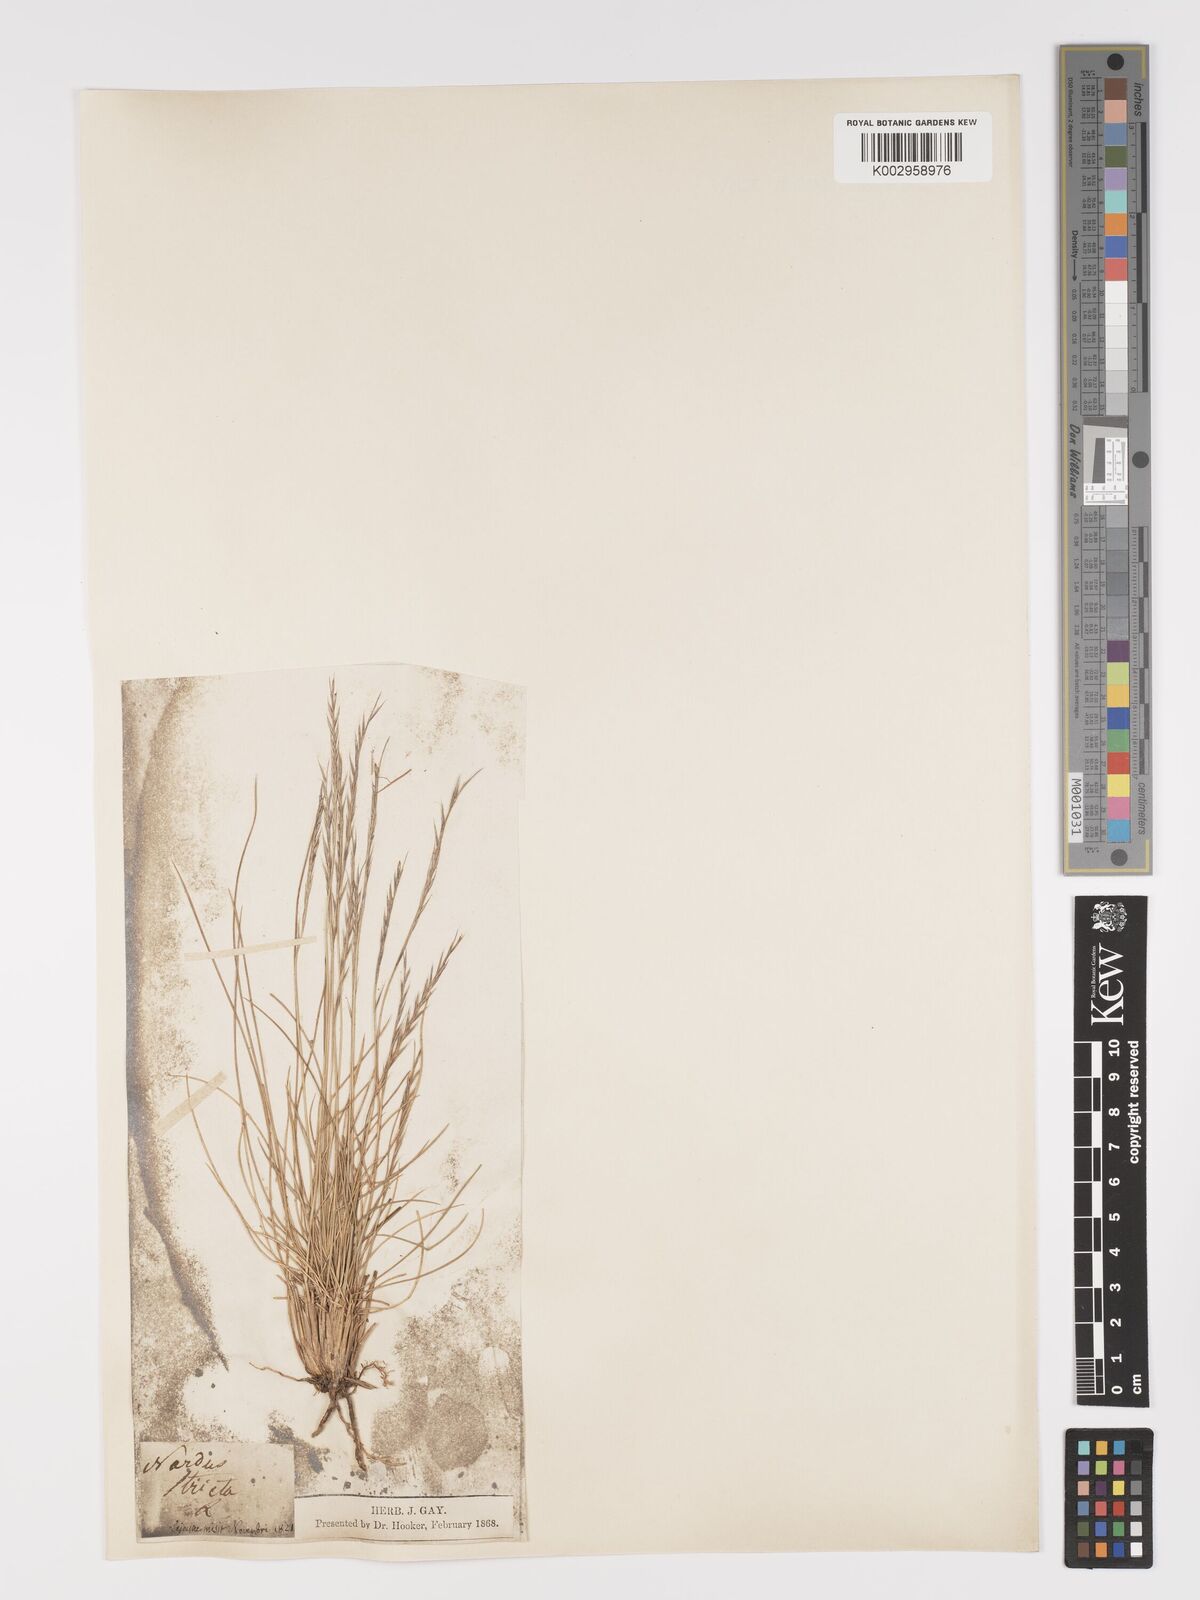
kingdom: Plantae
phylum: Tracheophyta
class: Liliopsida
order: Poales
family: Poaceae
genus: Nardus
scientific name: Nardus stricta
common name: Mat-grass
